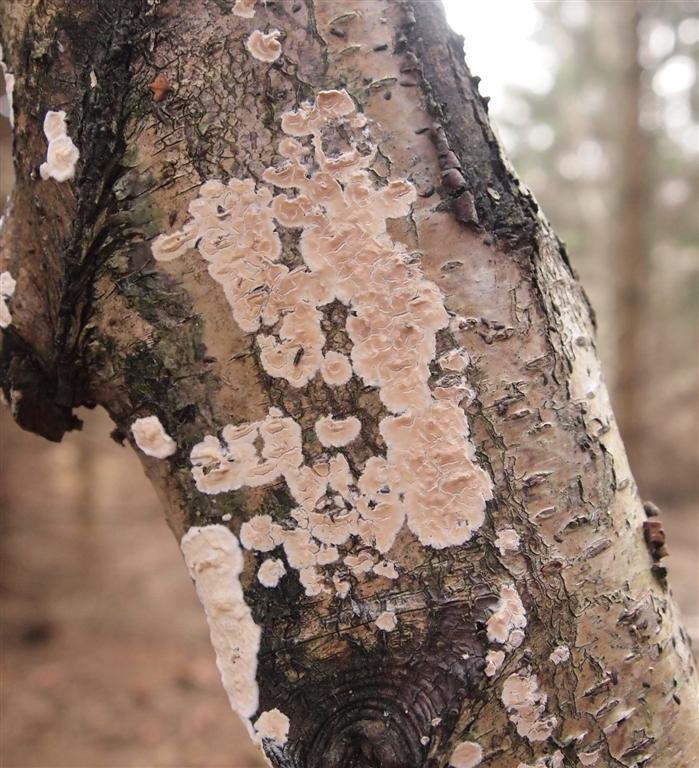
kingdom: Fungi
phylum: Basidiomycota
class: Agaricomycetes
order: Agaricales
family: Physalacriaceae
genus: Cylindrobasidium
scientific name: Cylindrobasidium evolvens
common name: sprækkehinde
